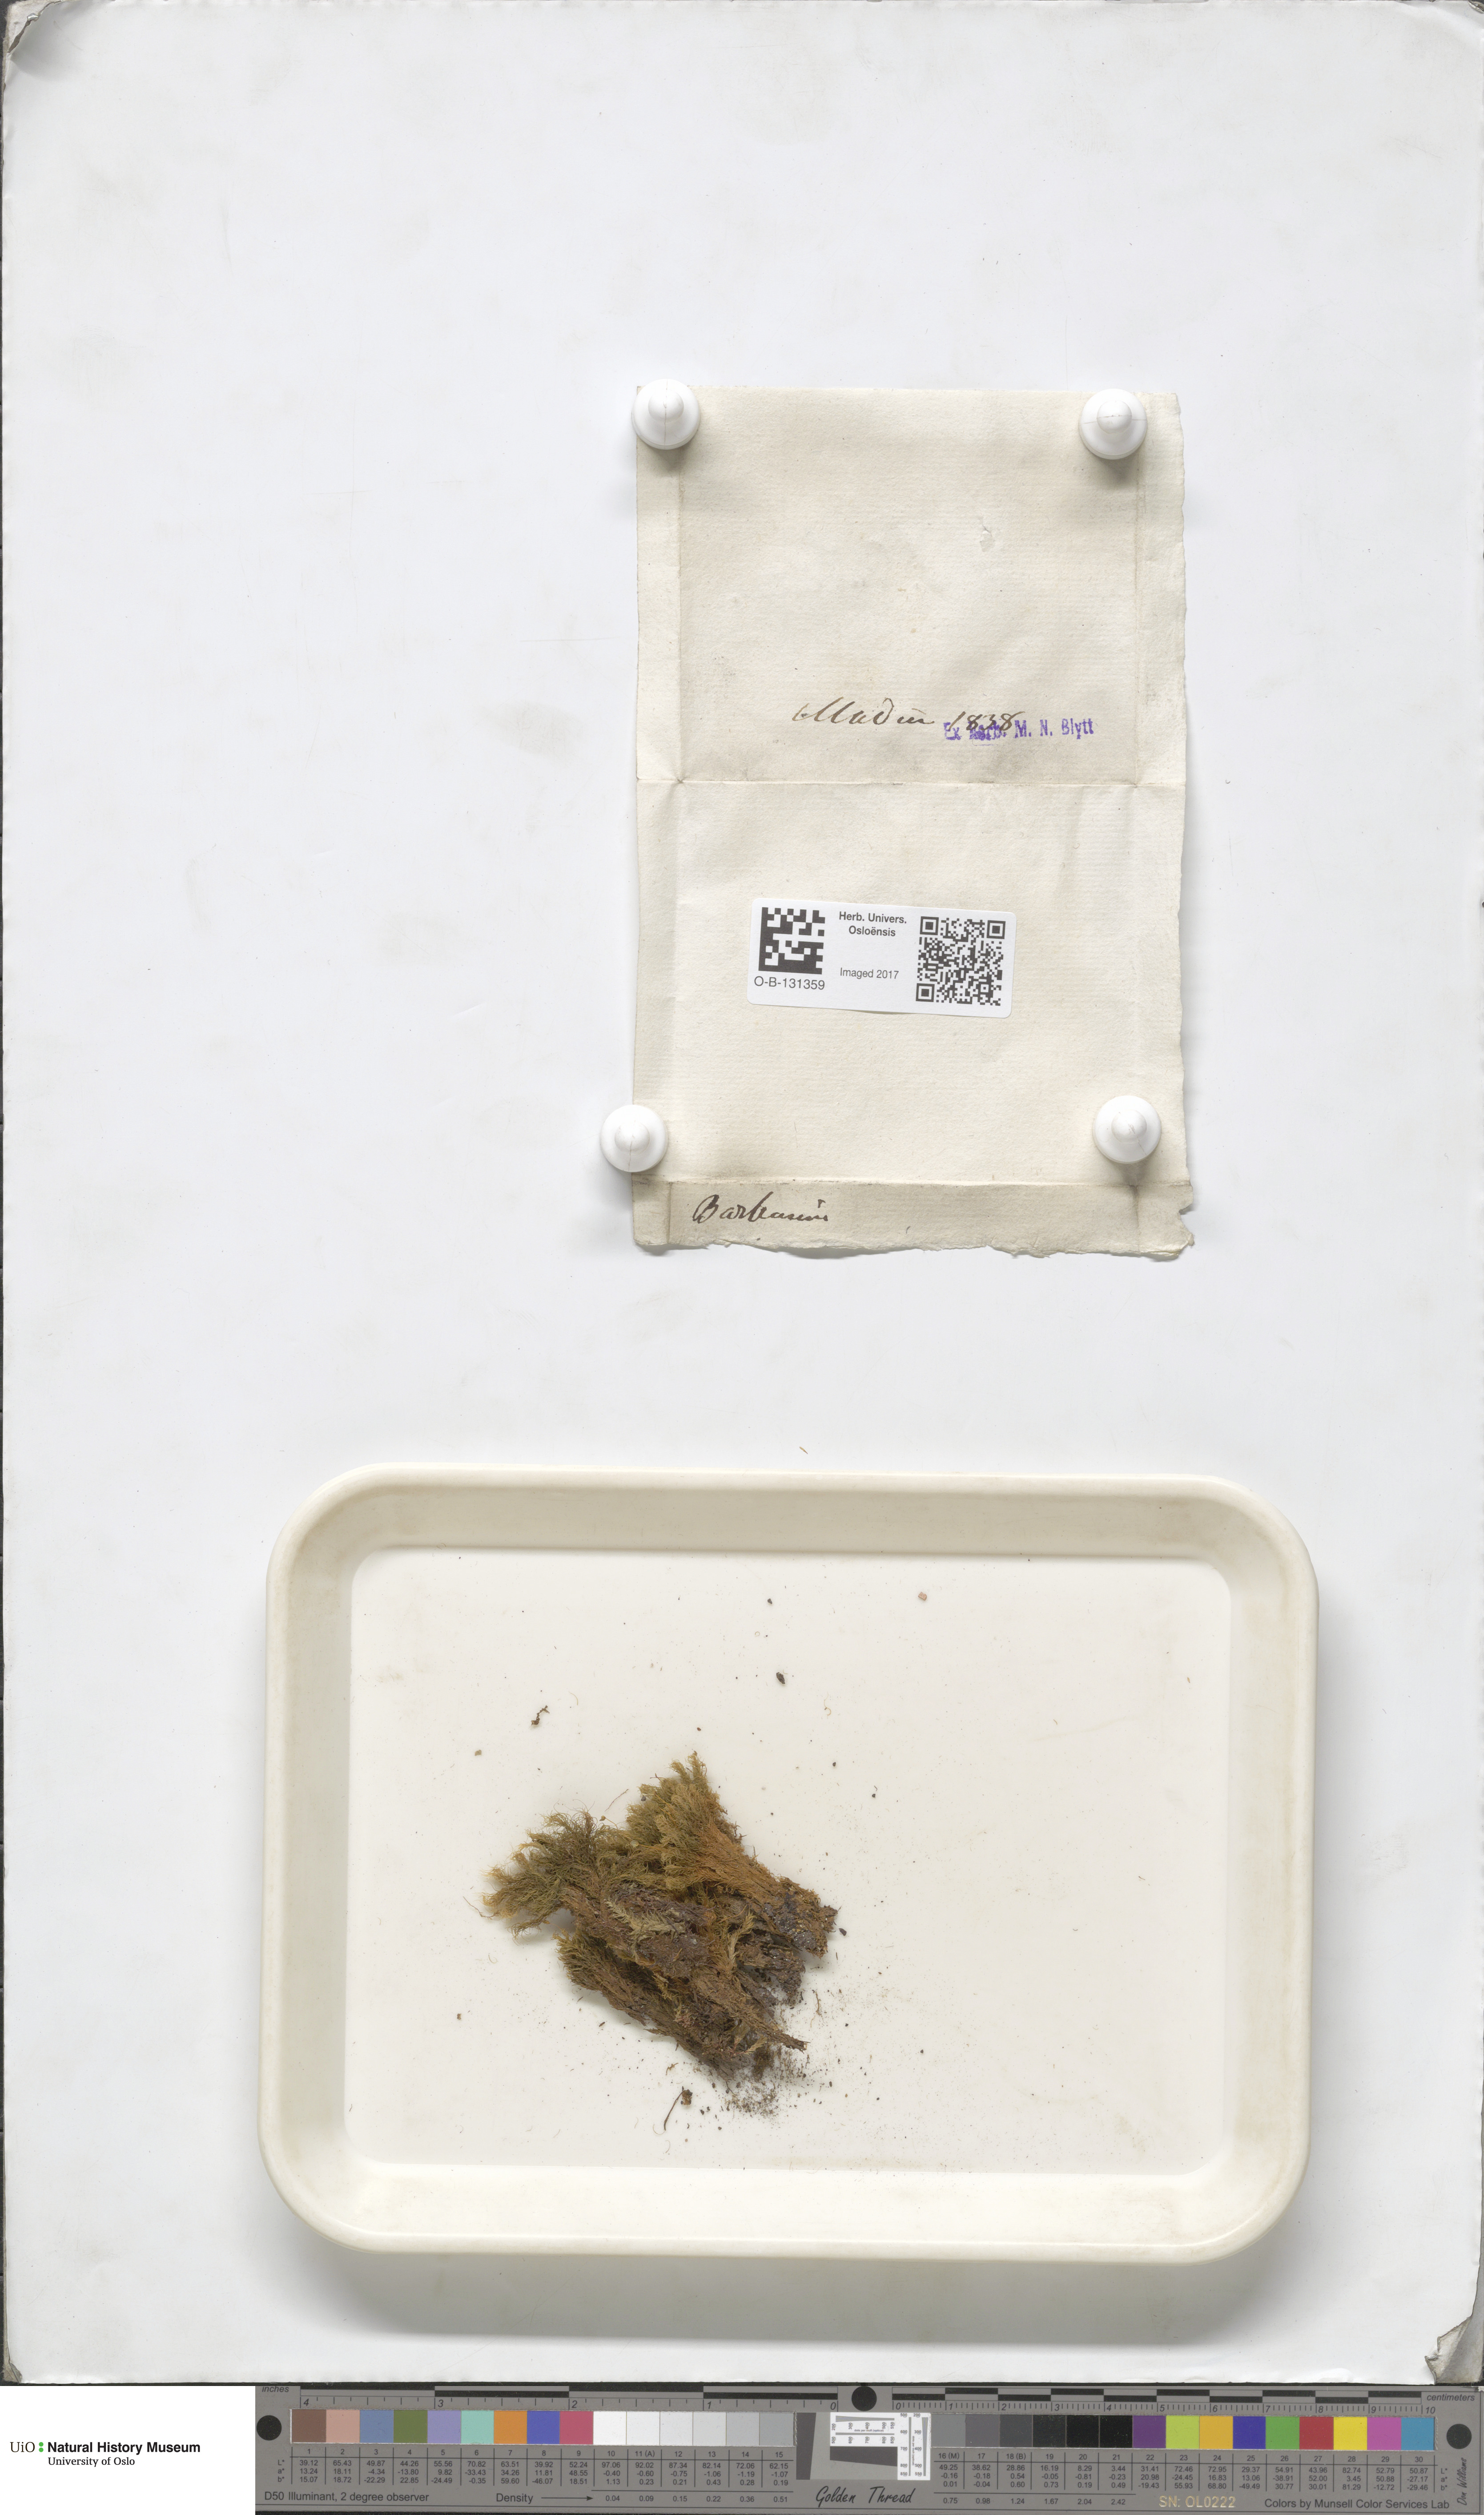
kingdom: Plantae
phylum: Bryophyta
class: Bryopsida
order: Bartramiales
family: Bartramiaceae
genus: Bartramia
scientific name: Bartramia
